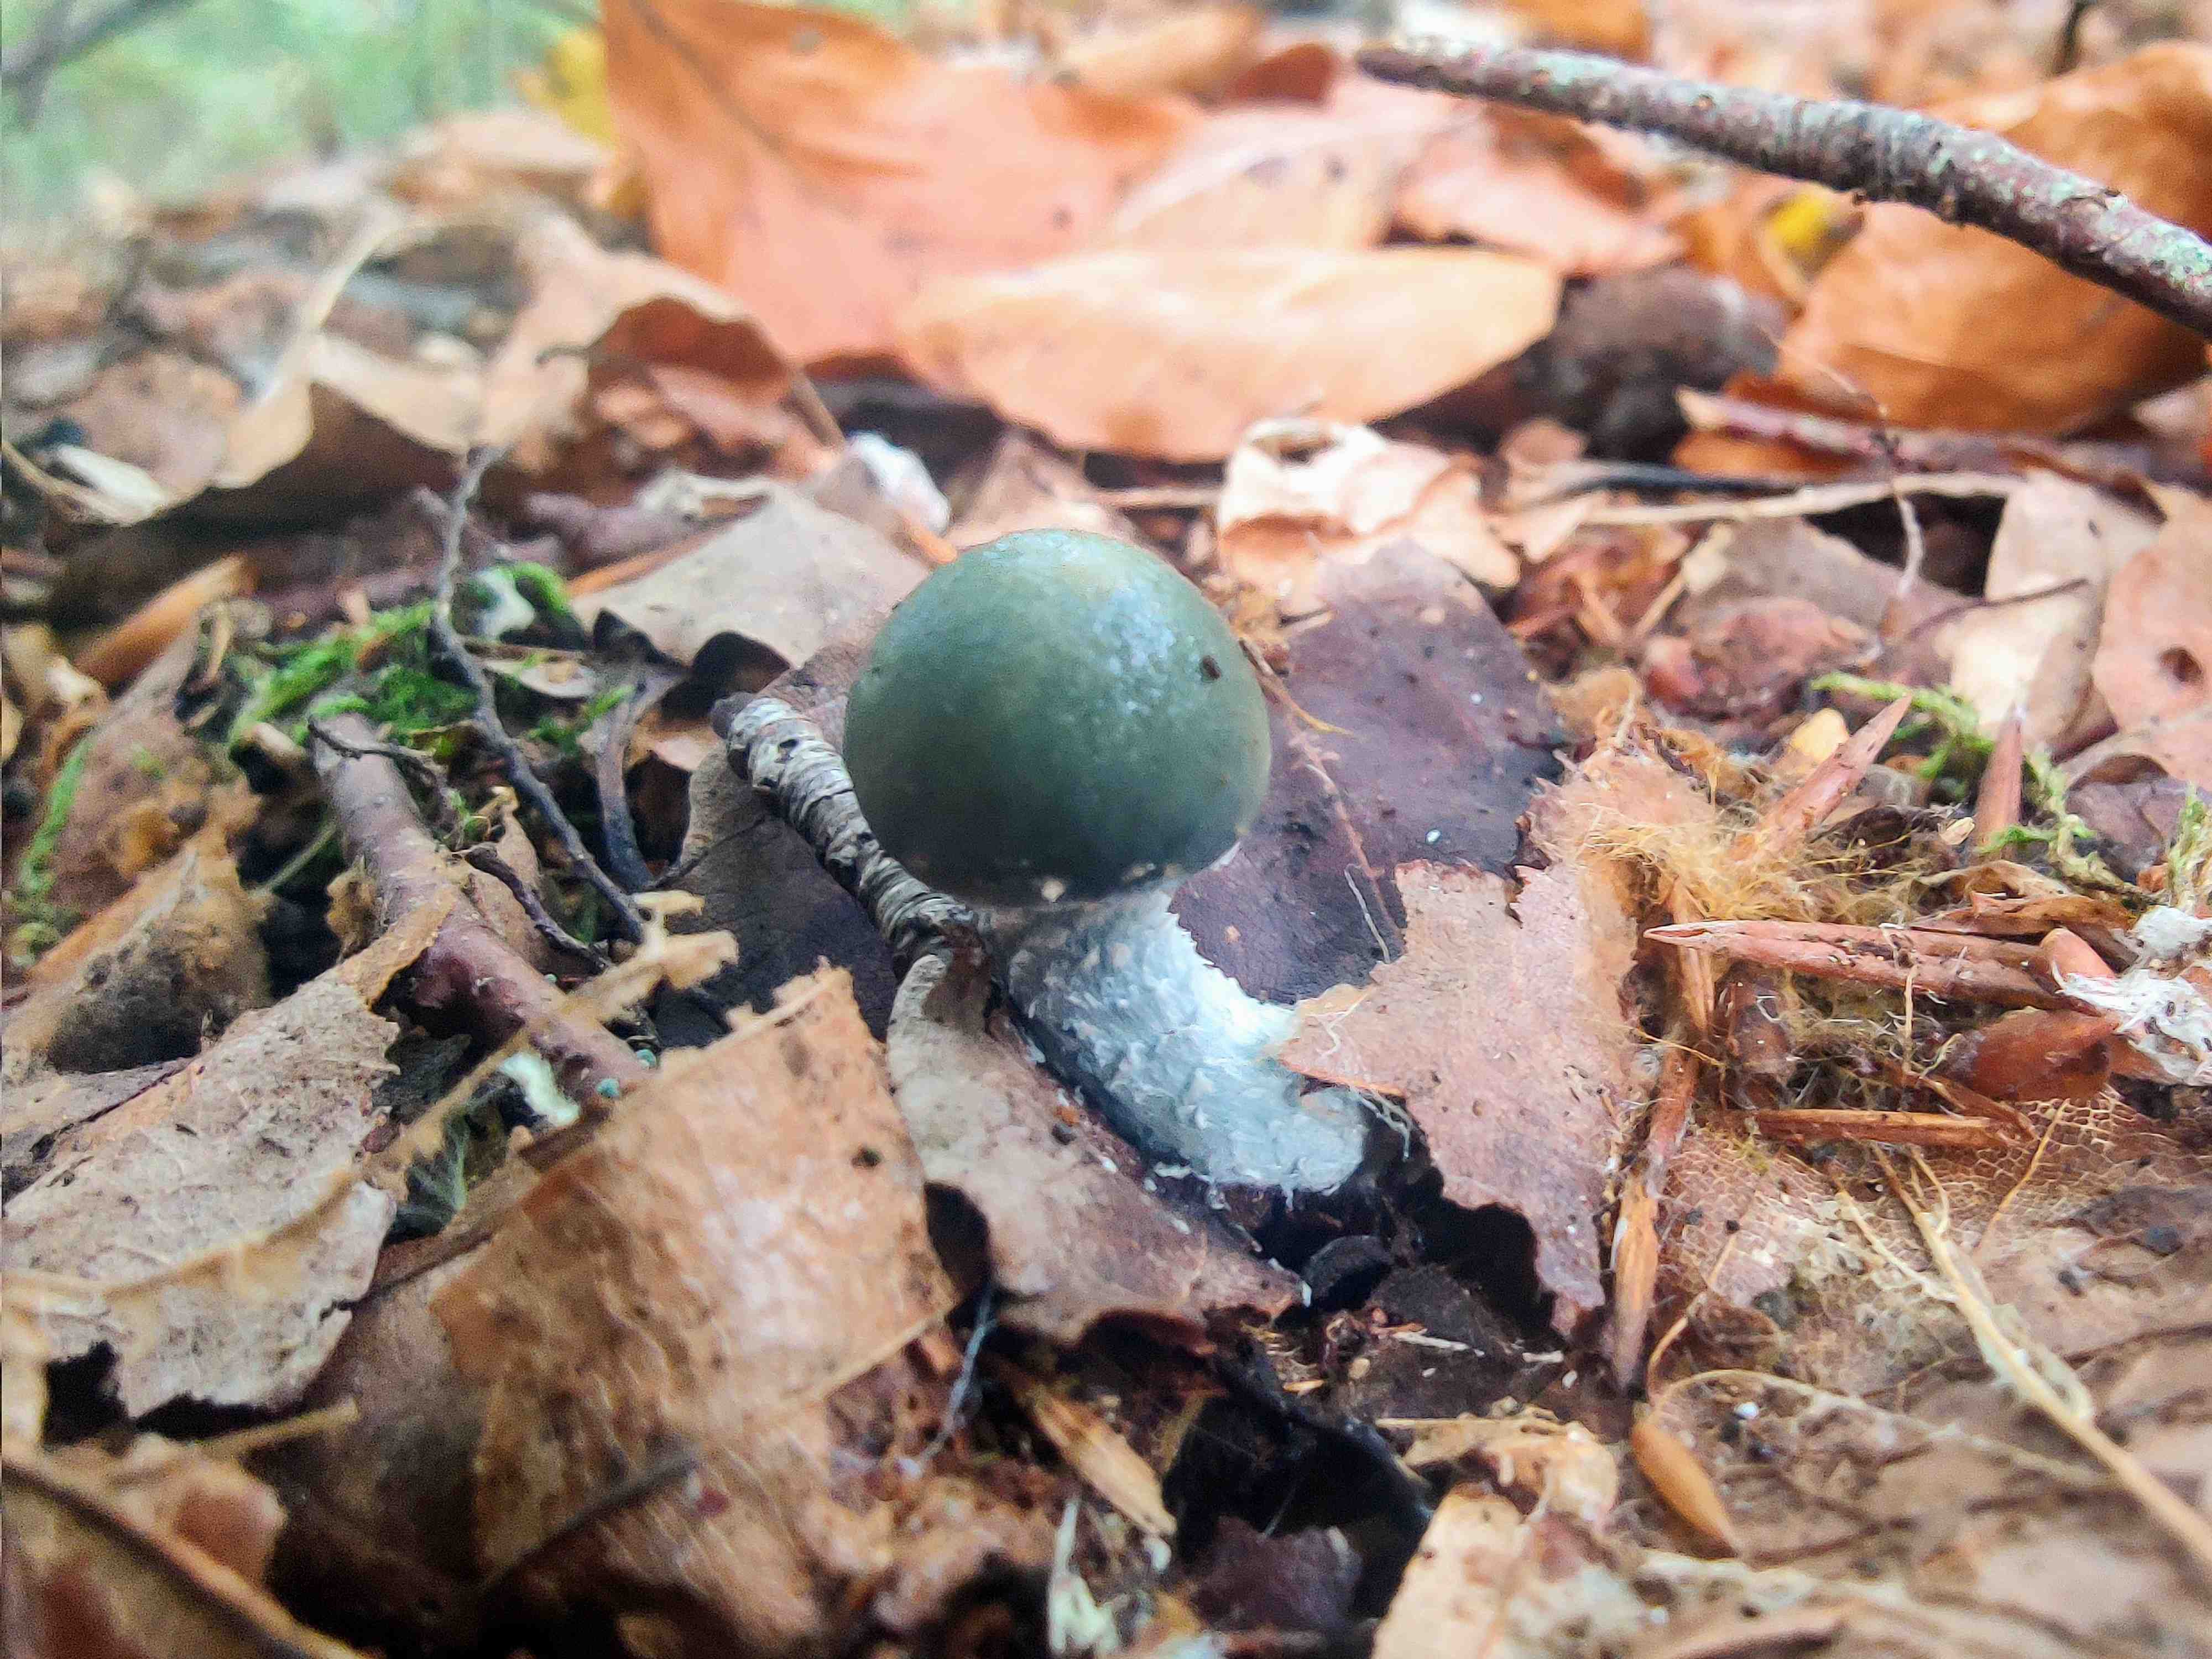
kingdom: Fungi
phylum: Basidiomycota
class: Agaricomycetes
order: Agaricales
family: Strophariaceae
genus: Stropharia
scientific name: Stropharia
